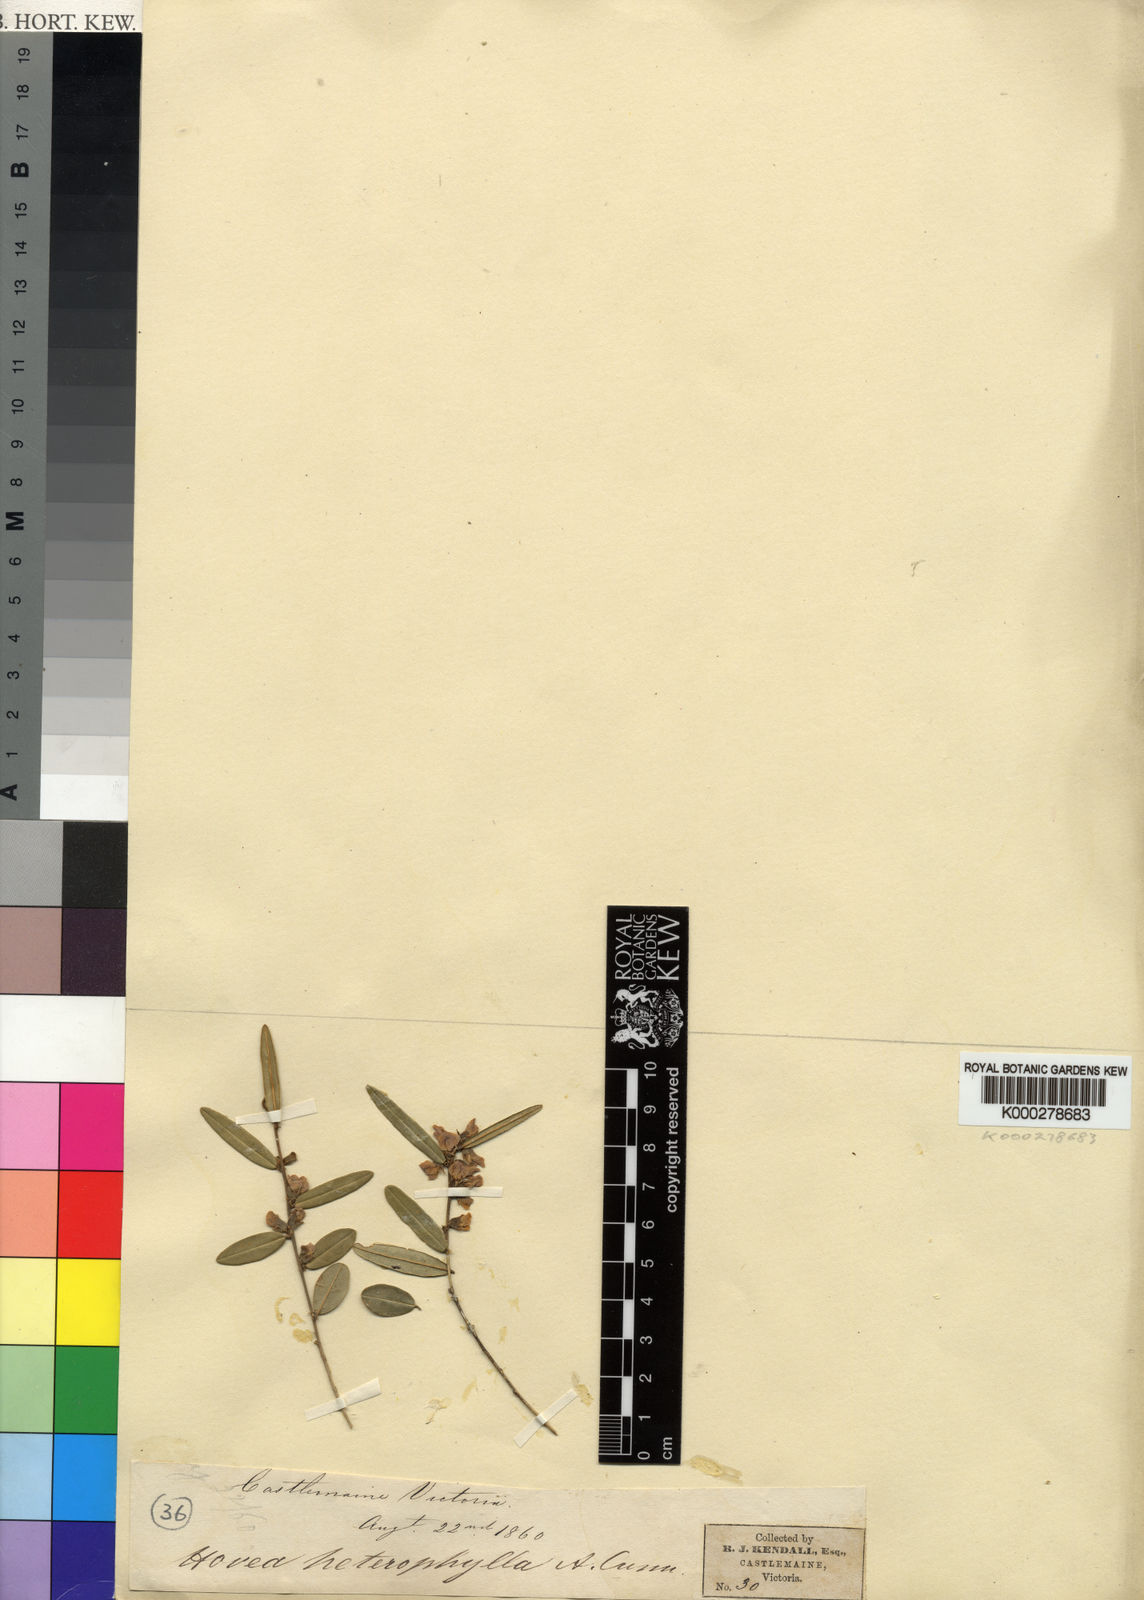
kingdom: Plantae
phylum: Tracheophyta
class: Magnoliopsida
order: Fabales
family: Fabaceae
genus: Hovea
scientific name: Hovea heterophylla
